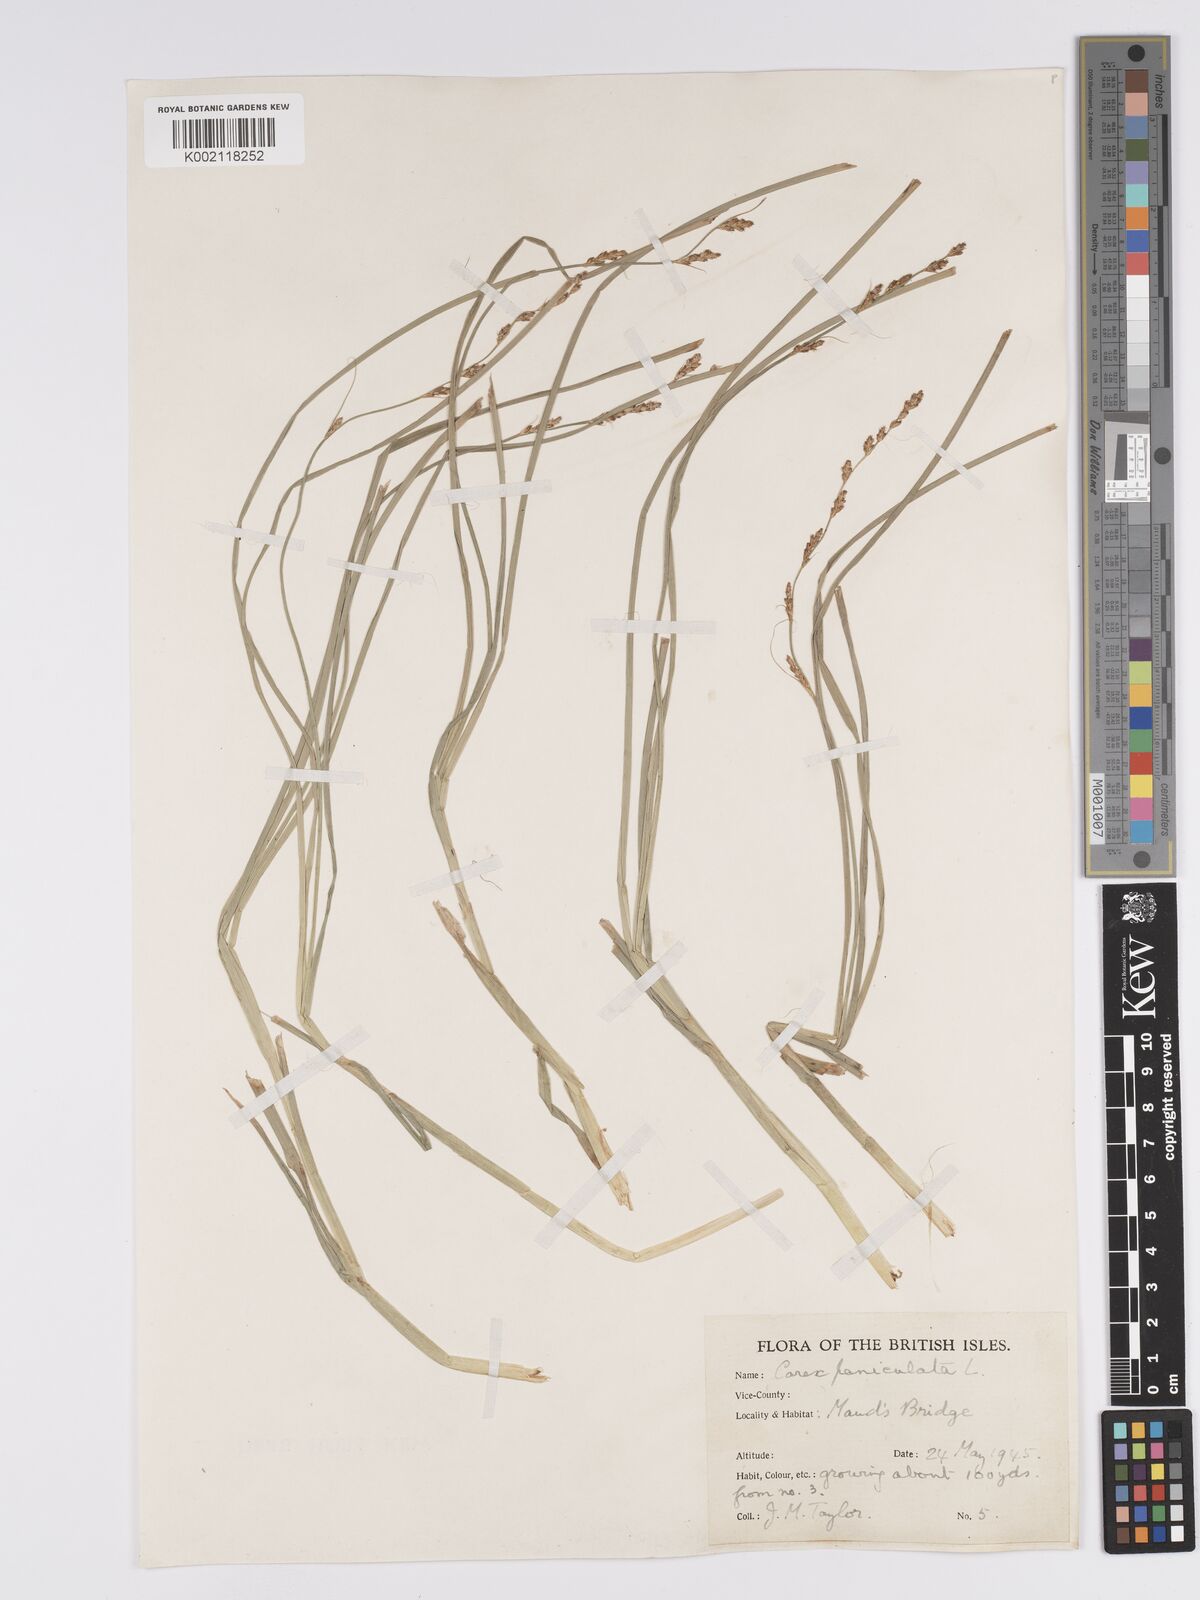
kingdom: Plantae
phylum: Tracheophyta
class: Liliopsida
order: Poales
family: Cyperaceae
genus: Carex
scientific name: Carex paniculata
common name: Greater tussock-sedge
